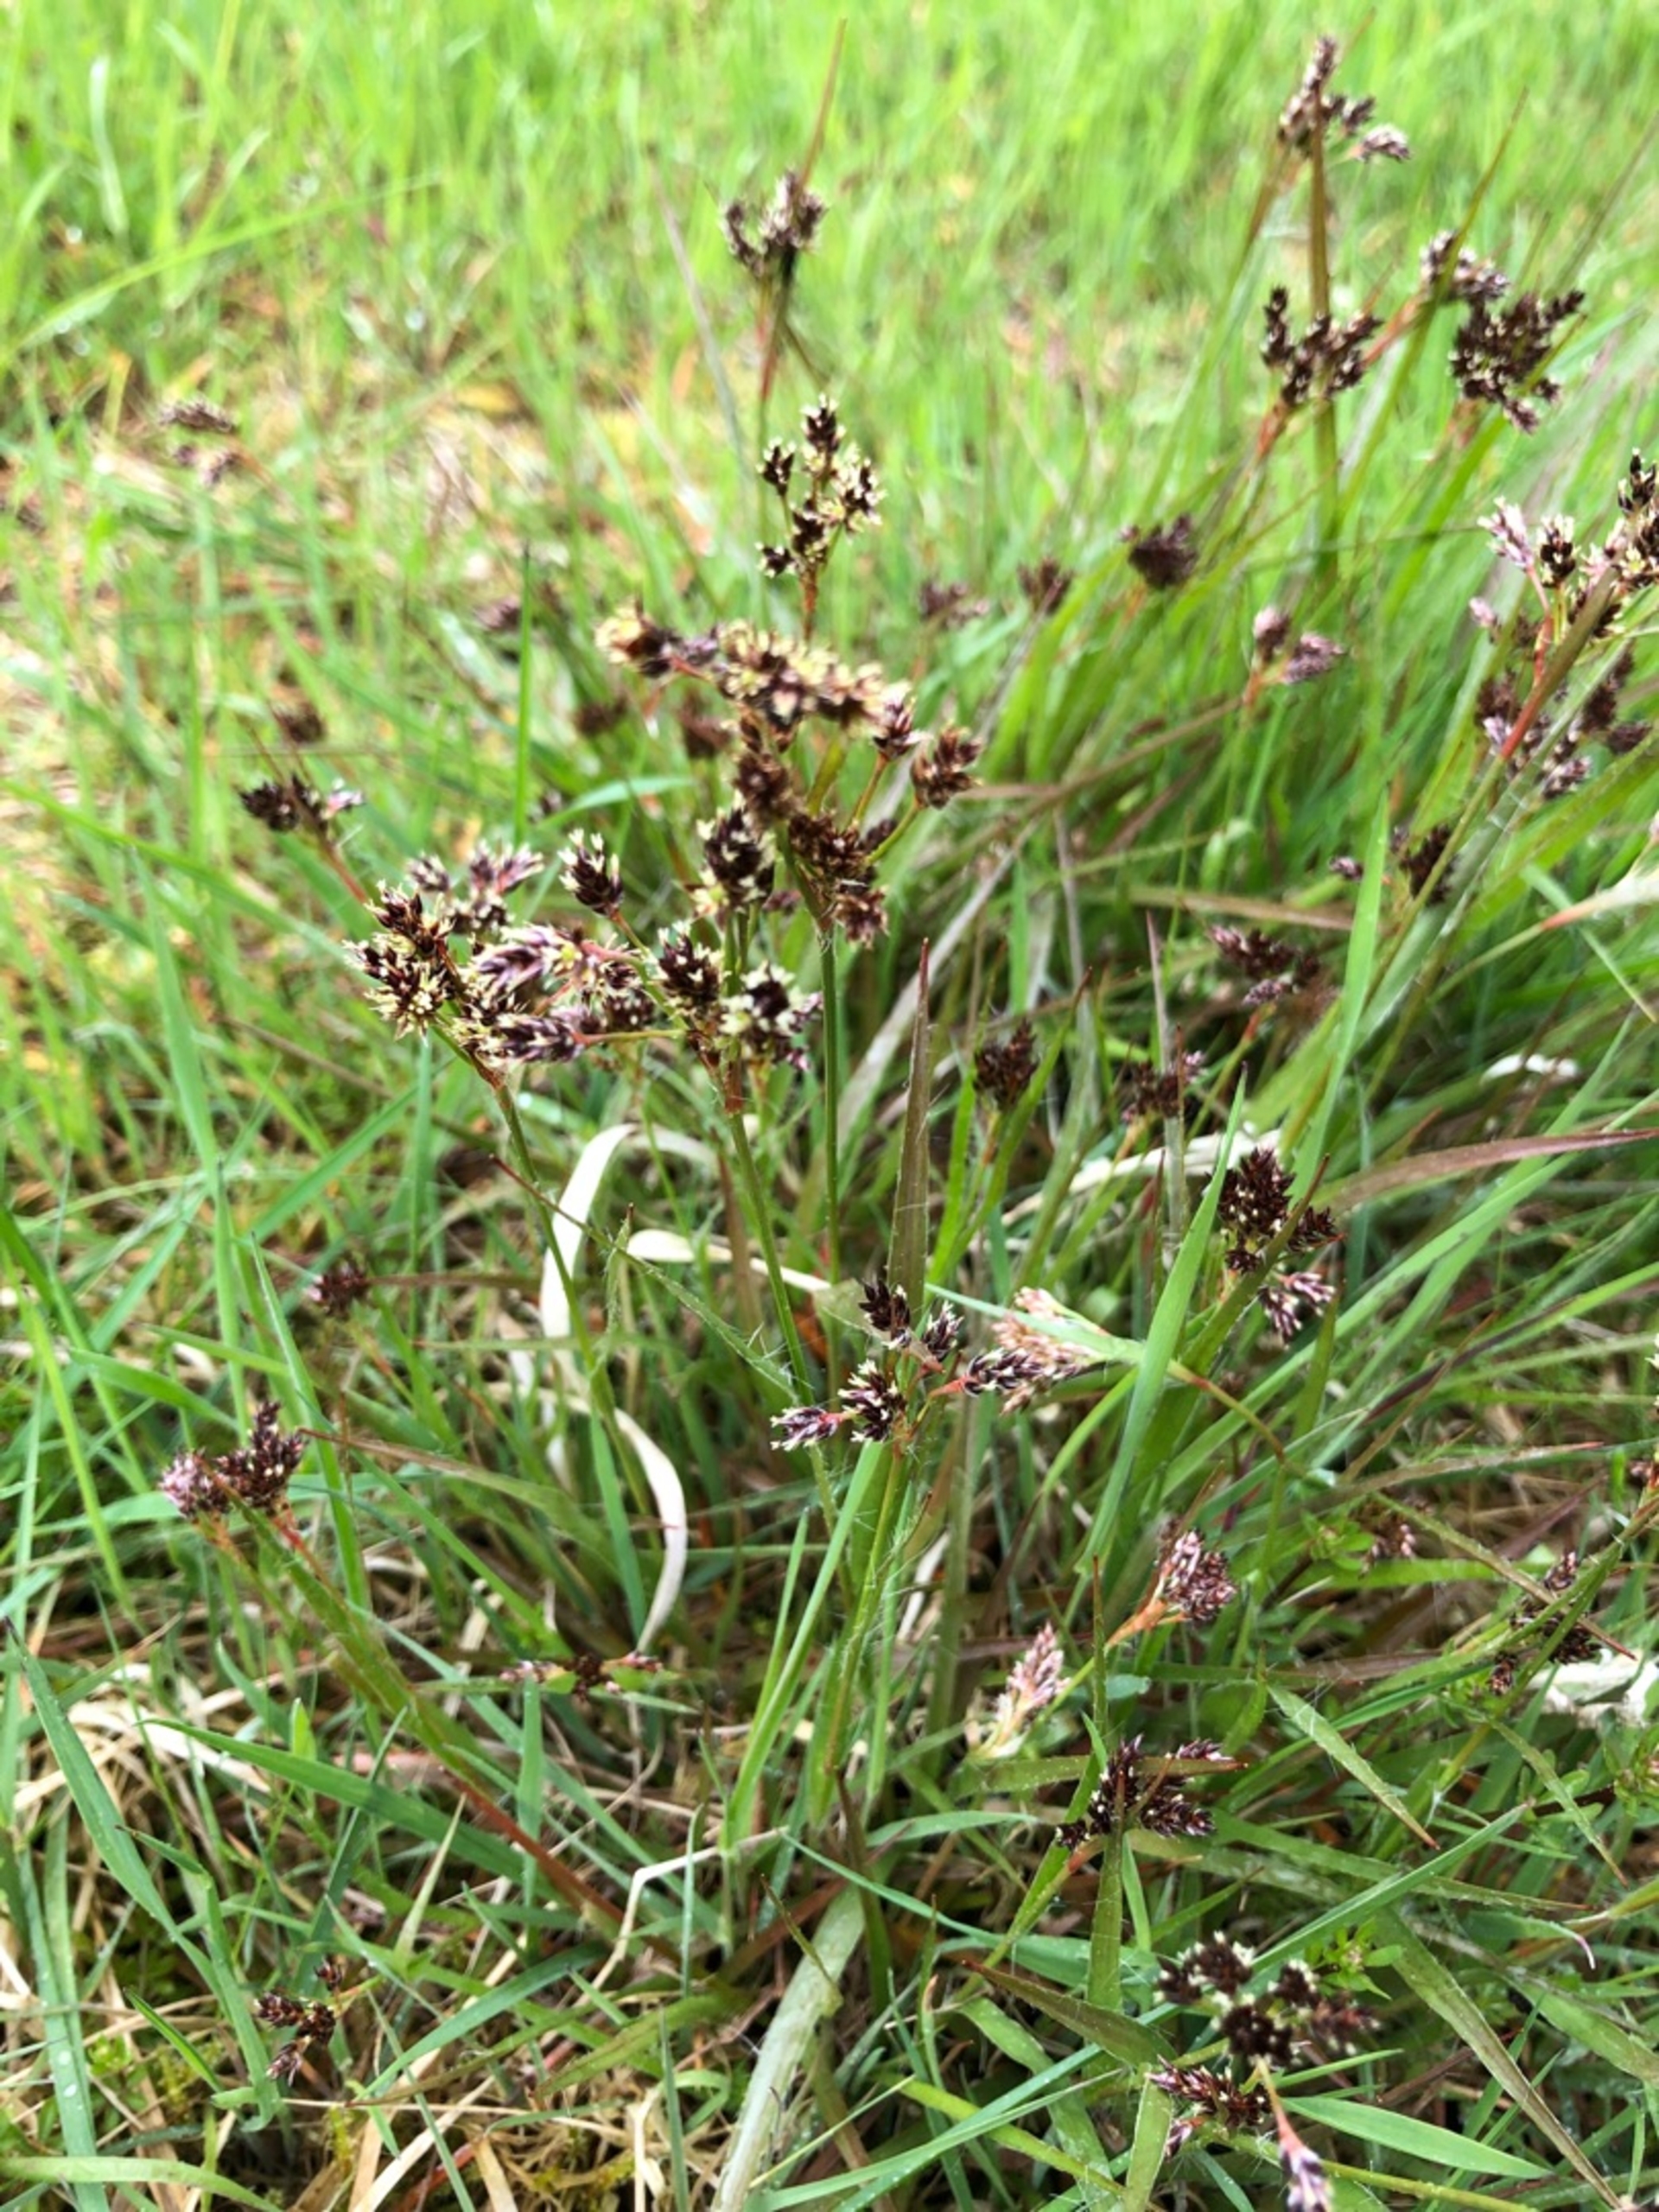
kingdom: Plantae
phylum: Tracheophyta
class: Liliopsida
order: Poales
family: Juncaceae
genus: Luzula
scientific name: Luzula multiflora
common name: Mangeblomstret frytle
